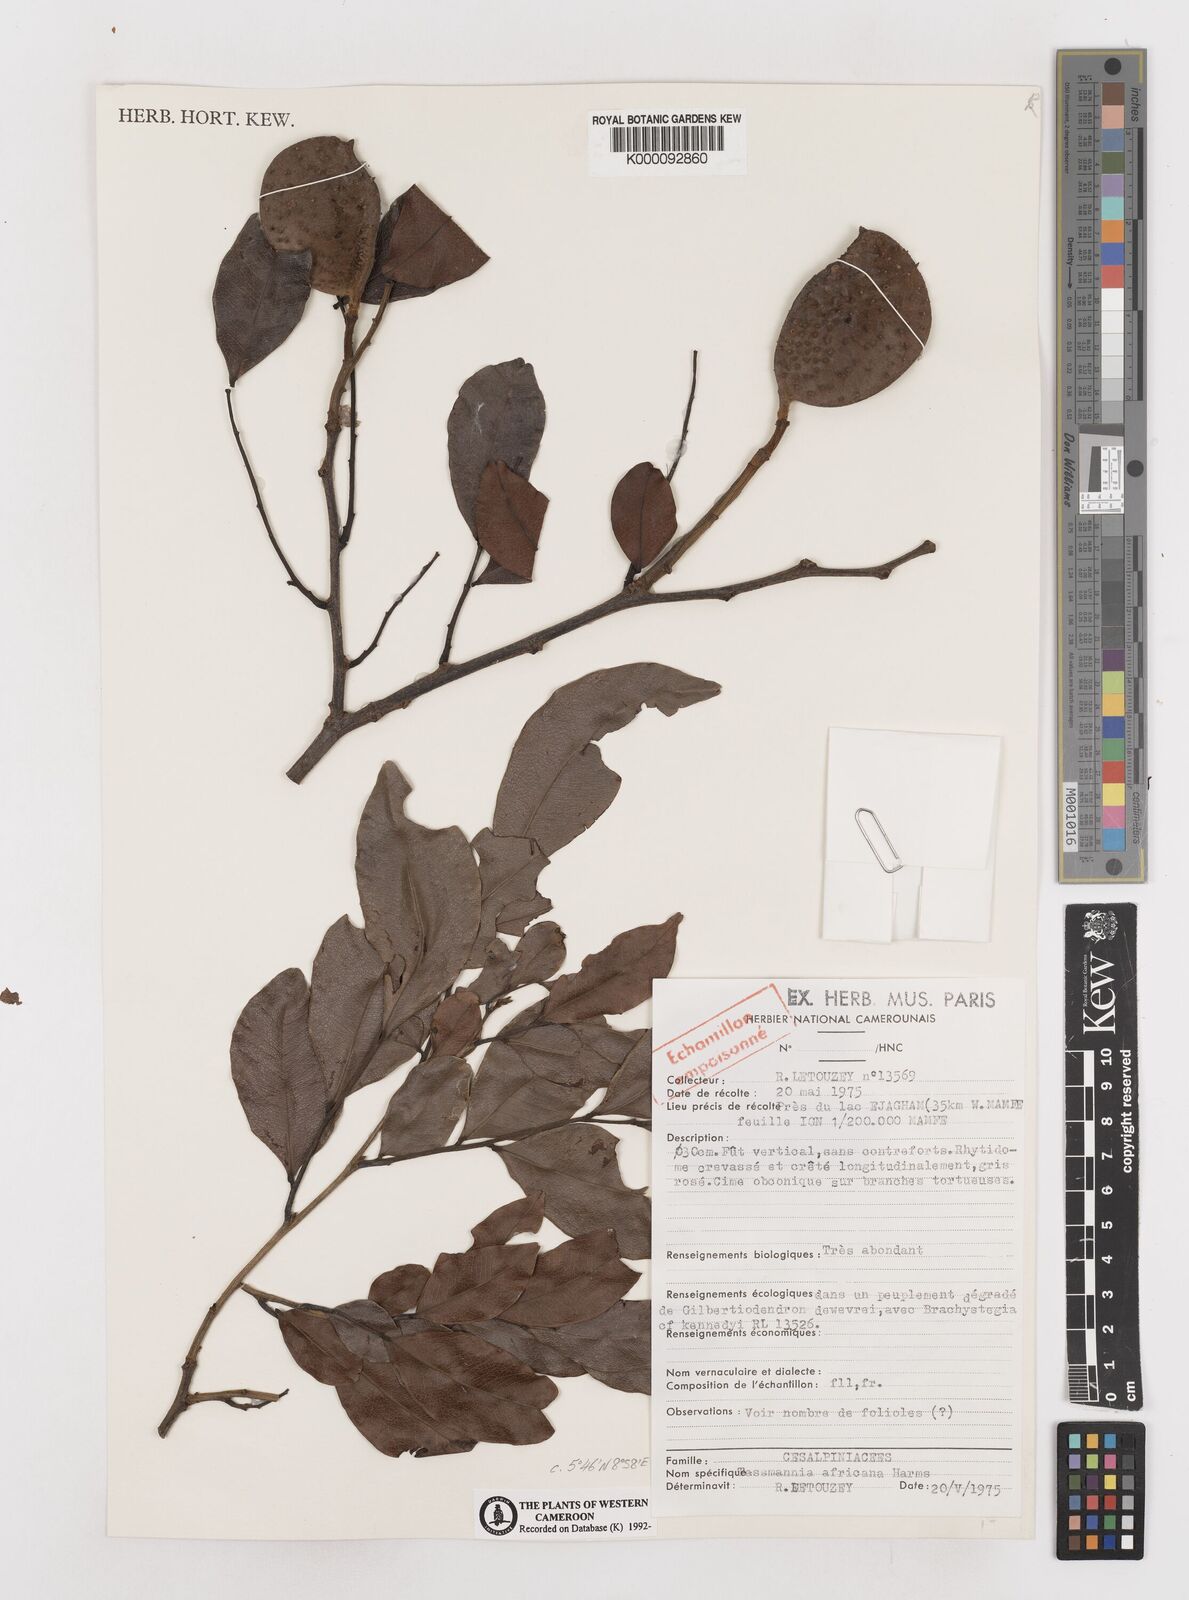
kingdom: Plantae
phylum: Tracheophyta
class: Magnoliopsida
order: Fabales
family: Fabaceae
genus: Tessmannia
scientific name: Tessmannia africana
